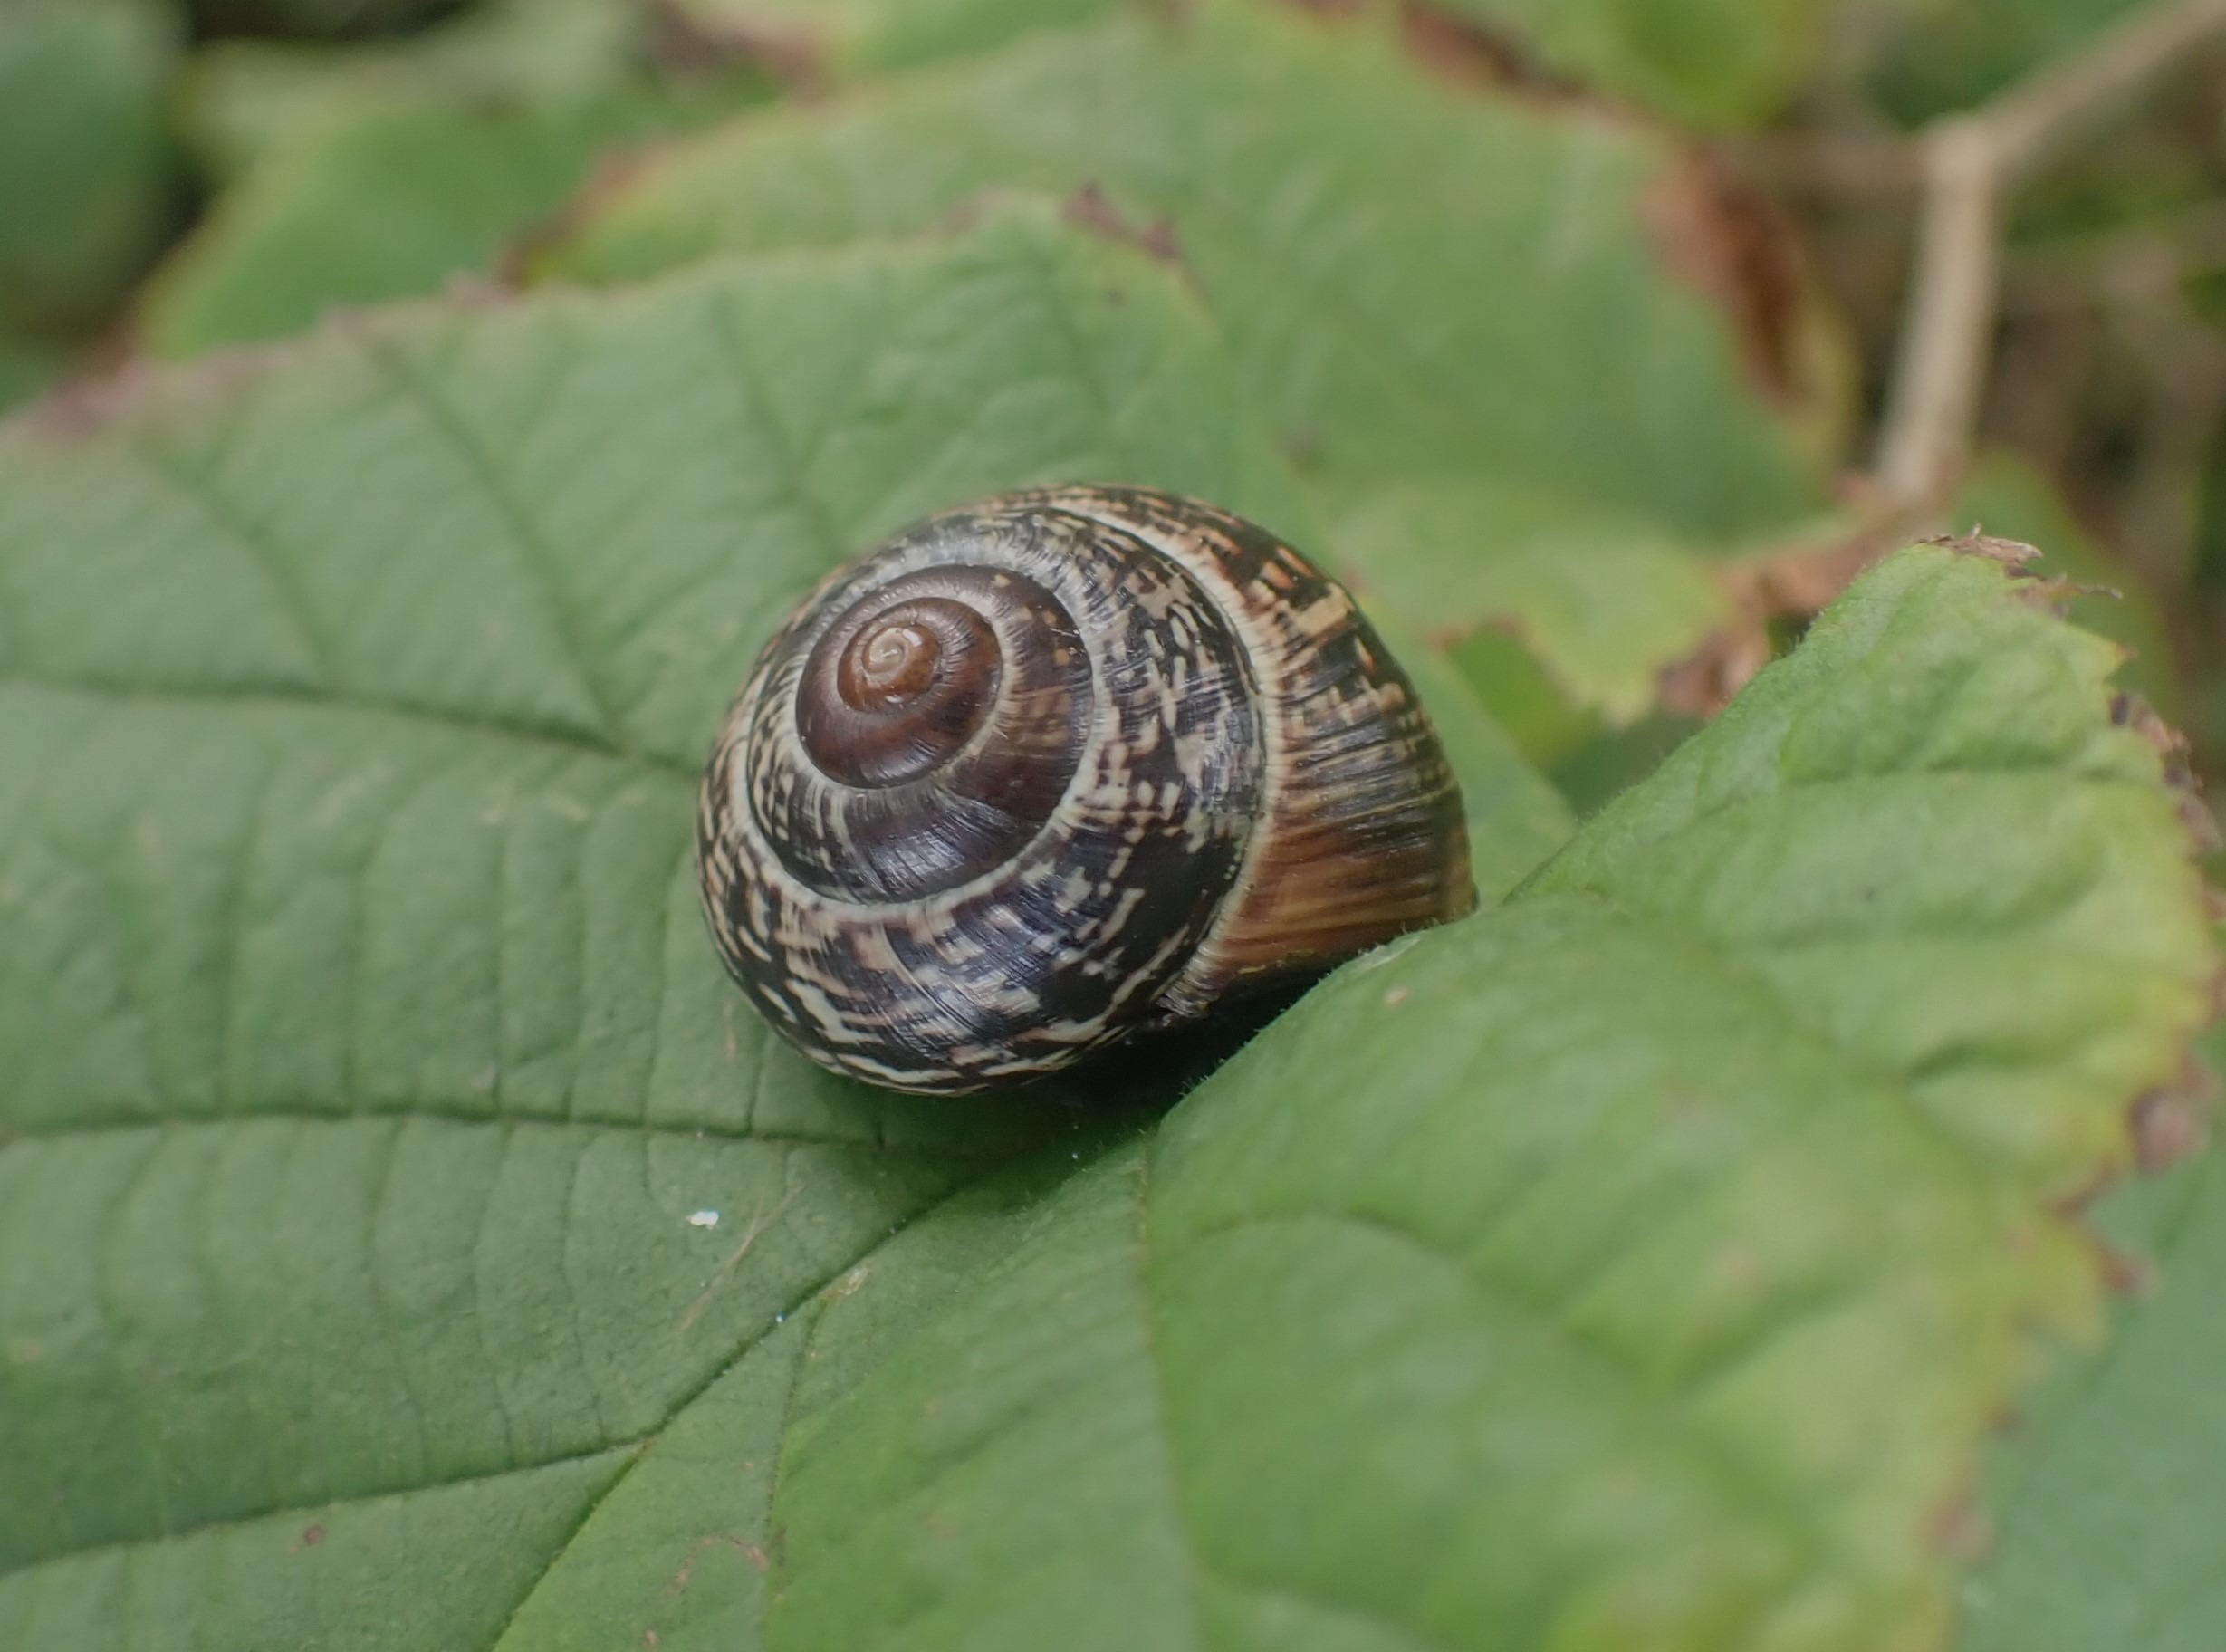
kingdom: Animalia
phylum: Mollusca
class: Gastropoda
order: Stylommatophora
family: Helicidae
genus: Arianta
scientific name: Arianta arbustorum
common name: Kratsnegl
